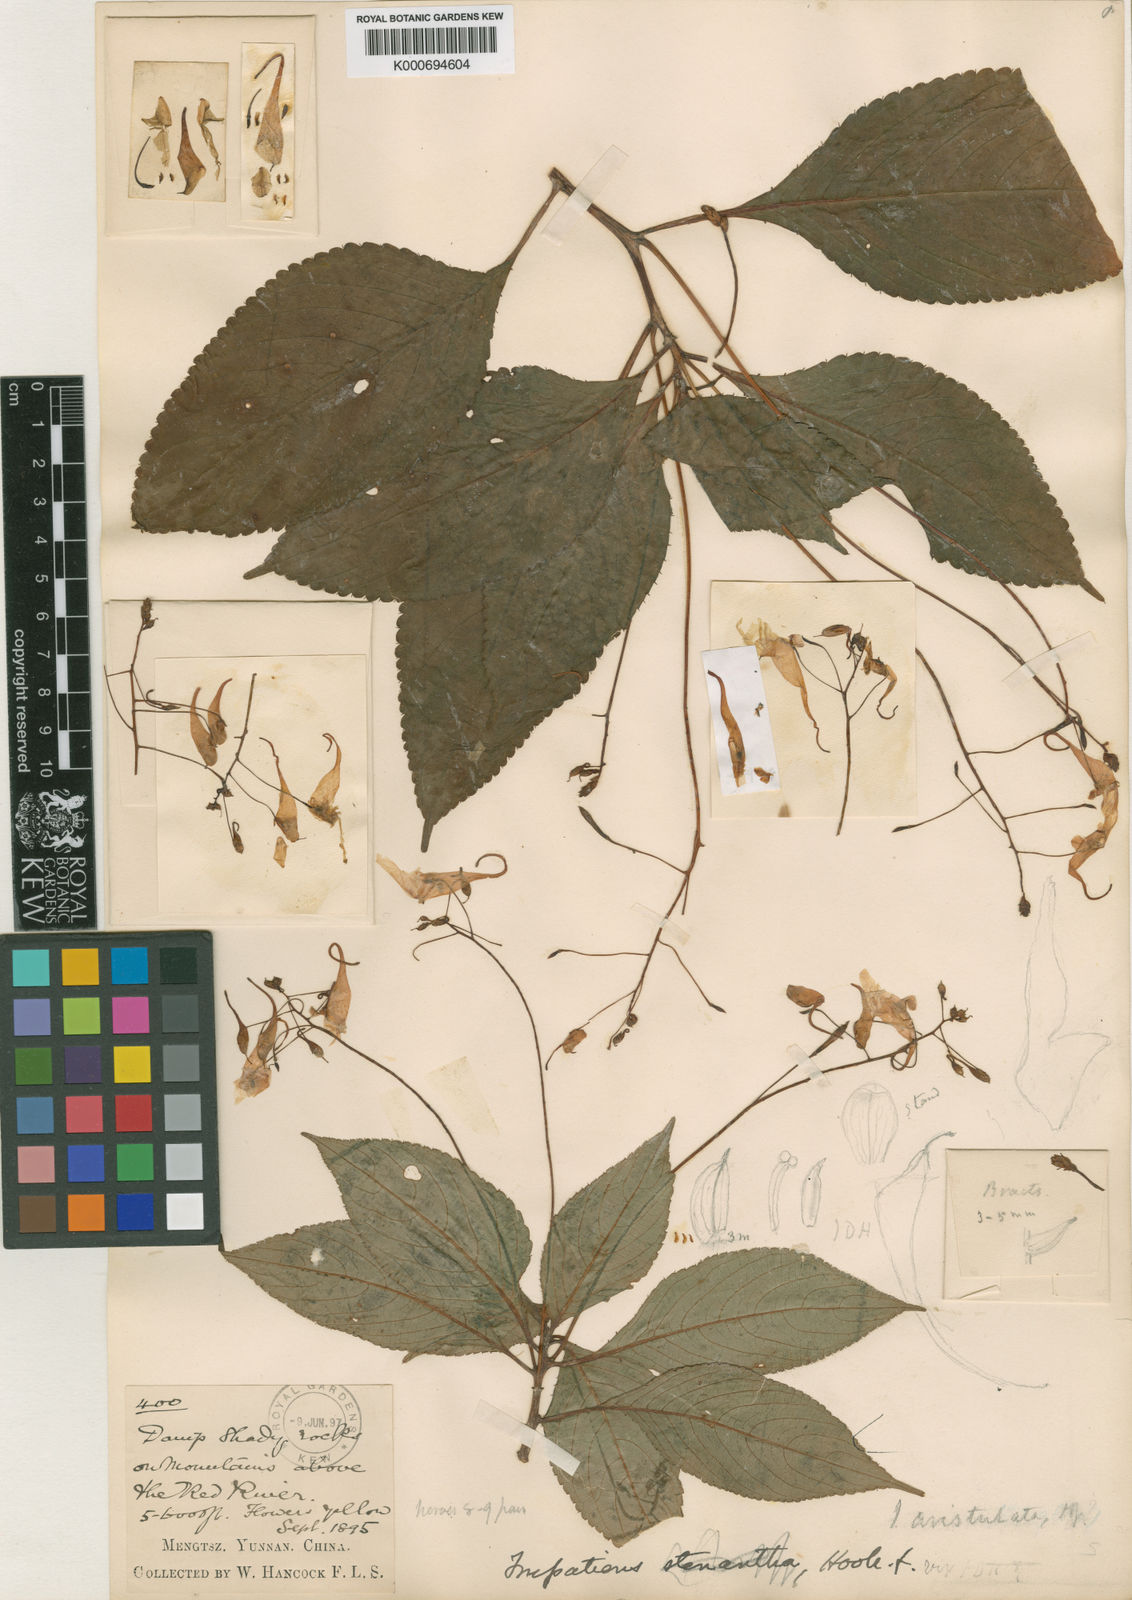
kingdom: Plantae
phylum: Tracheophyta
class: Magnoliopsida
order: Ericales
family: Balsaminaceae
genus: Impatiens
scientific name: Impatiens
